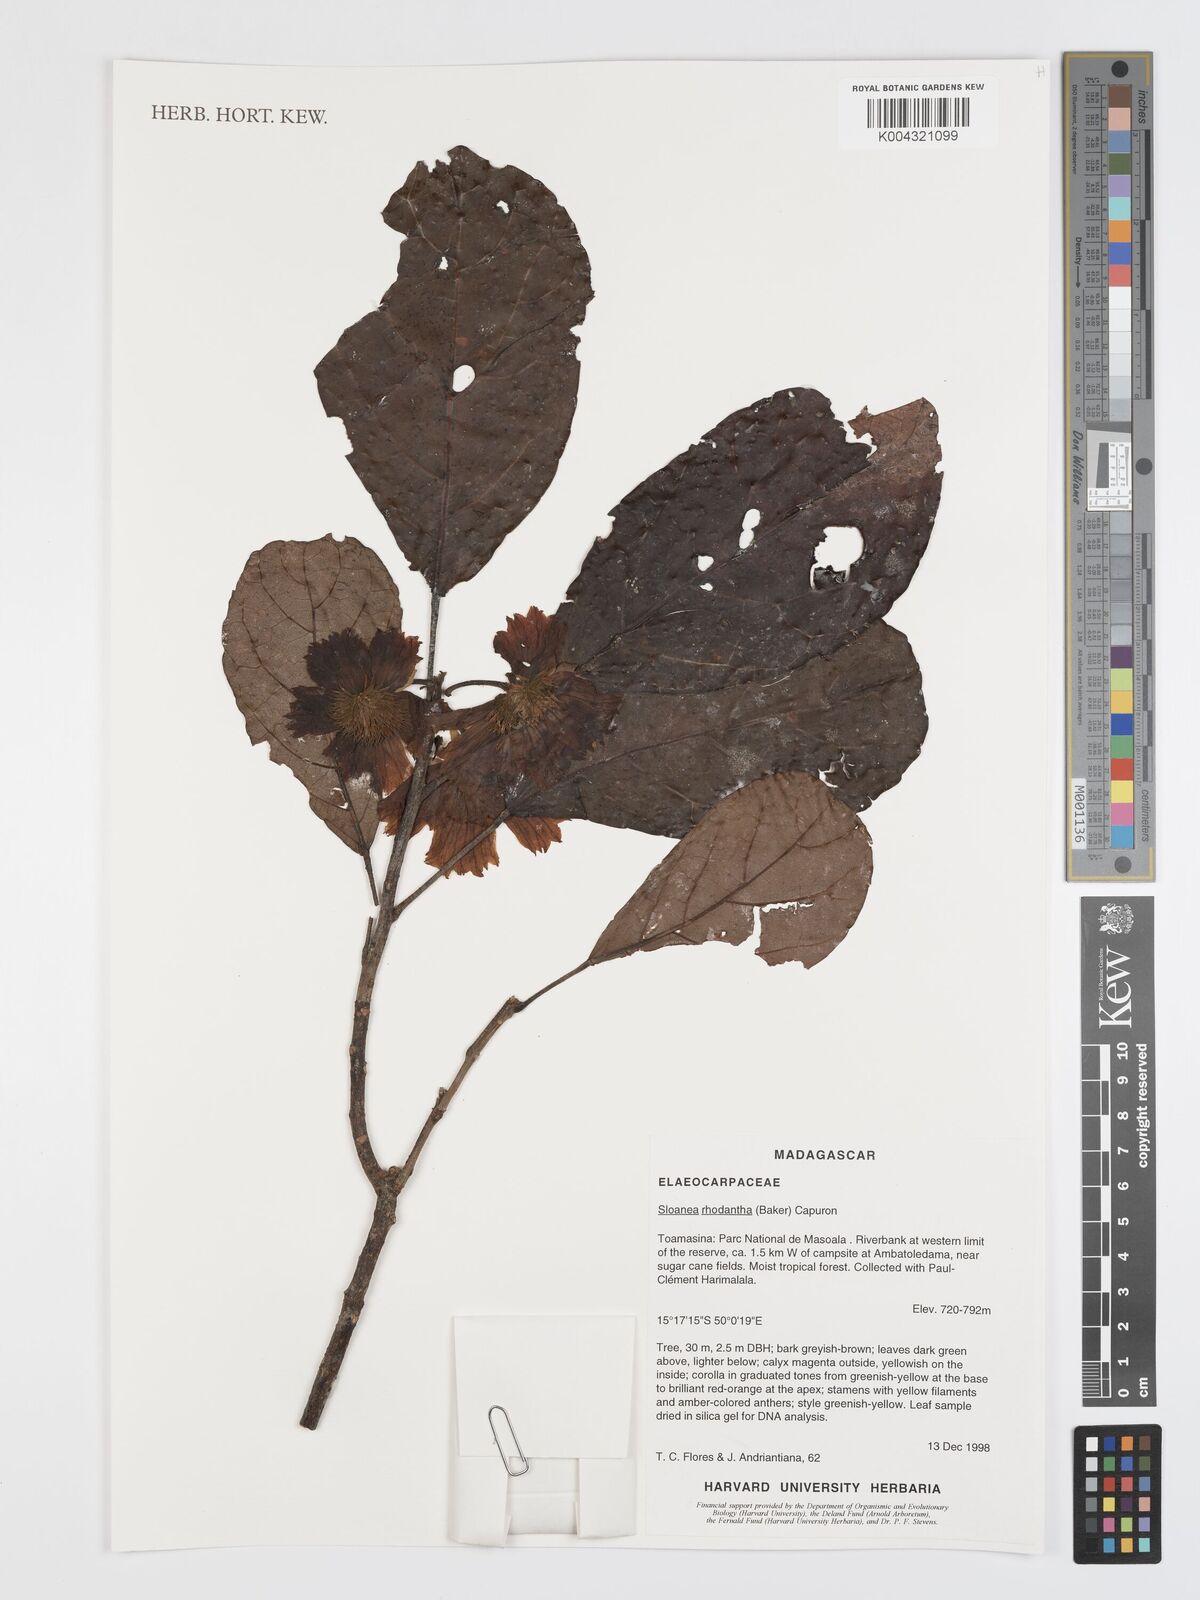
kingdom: Plantae
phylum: Tracheophyta
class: Magnoliopsida
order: Oxalidales
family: Elaeocarpaceae
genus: Sloanea
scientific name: Sloanea rhodantha
